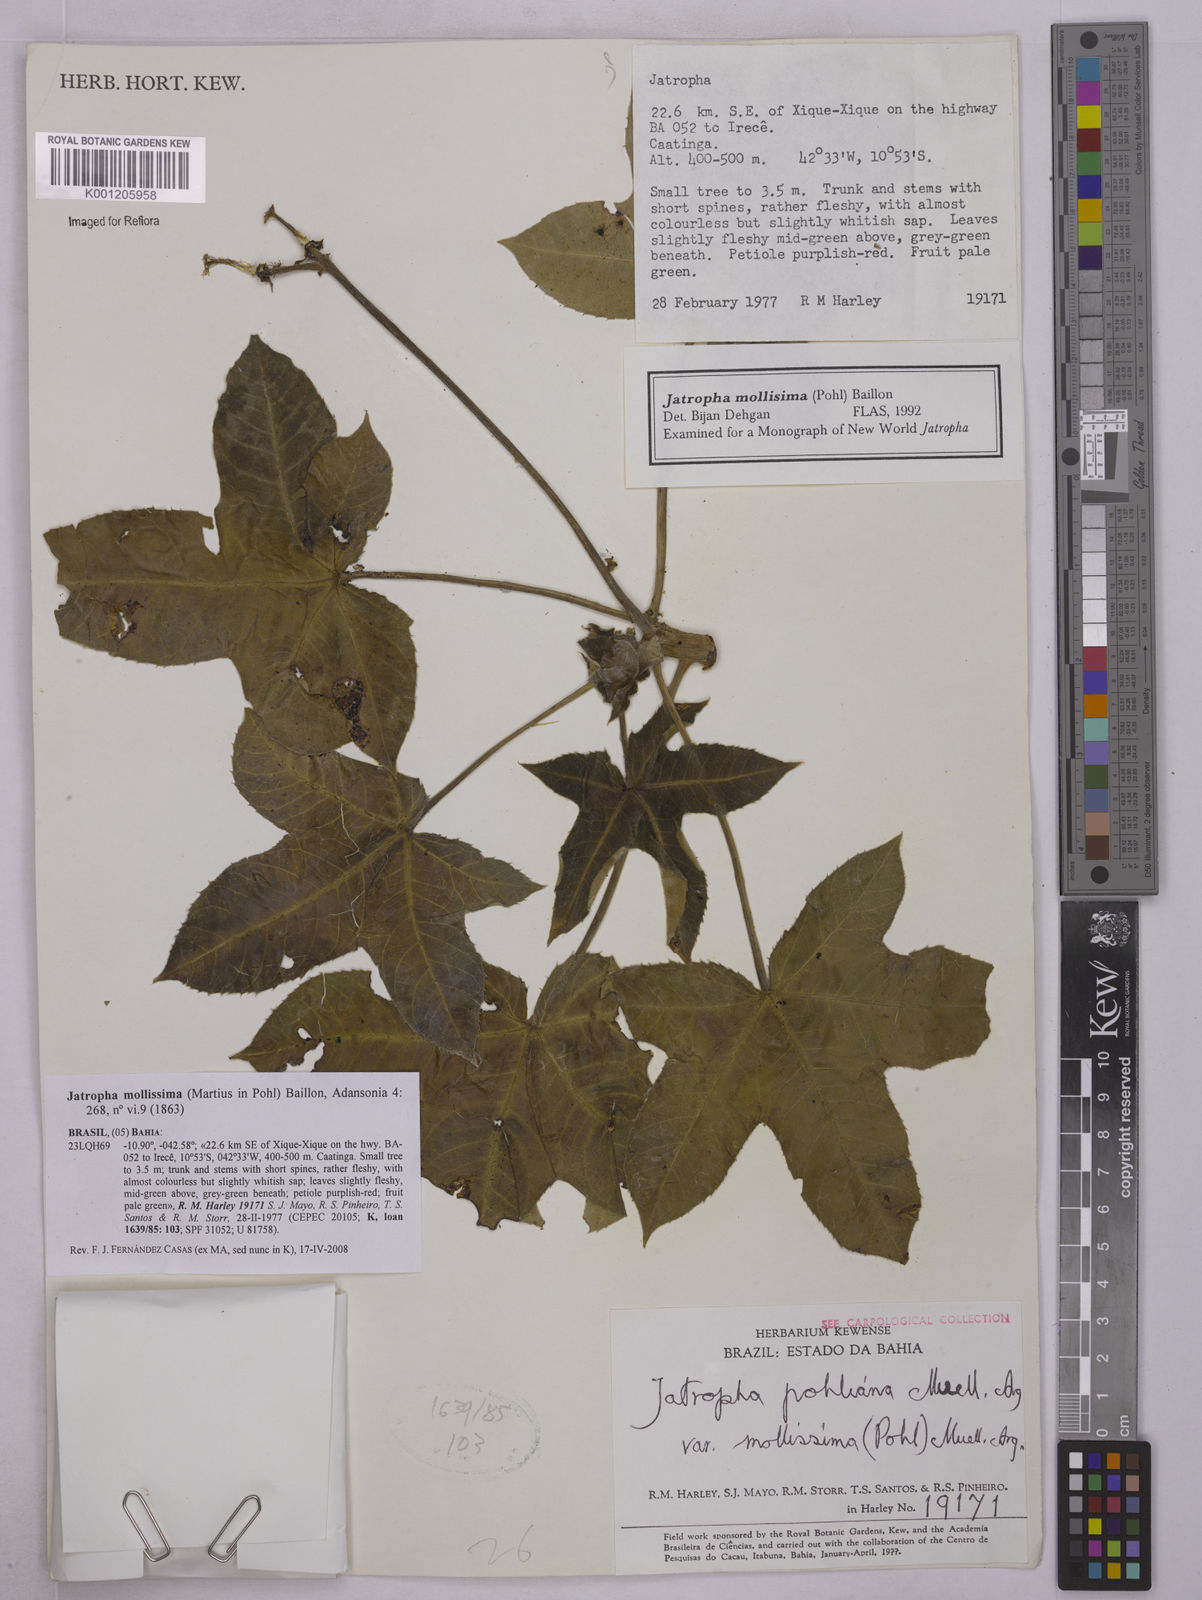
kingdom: Plantae
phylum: Tracheophyta
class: Magnoliopsida
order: Malpighiales
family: Euphorbiaceae
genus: Jatropha
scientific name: Jatropha mollissima
